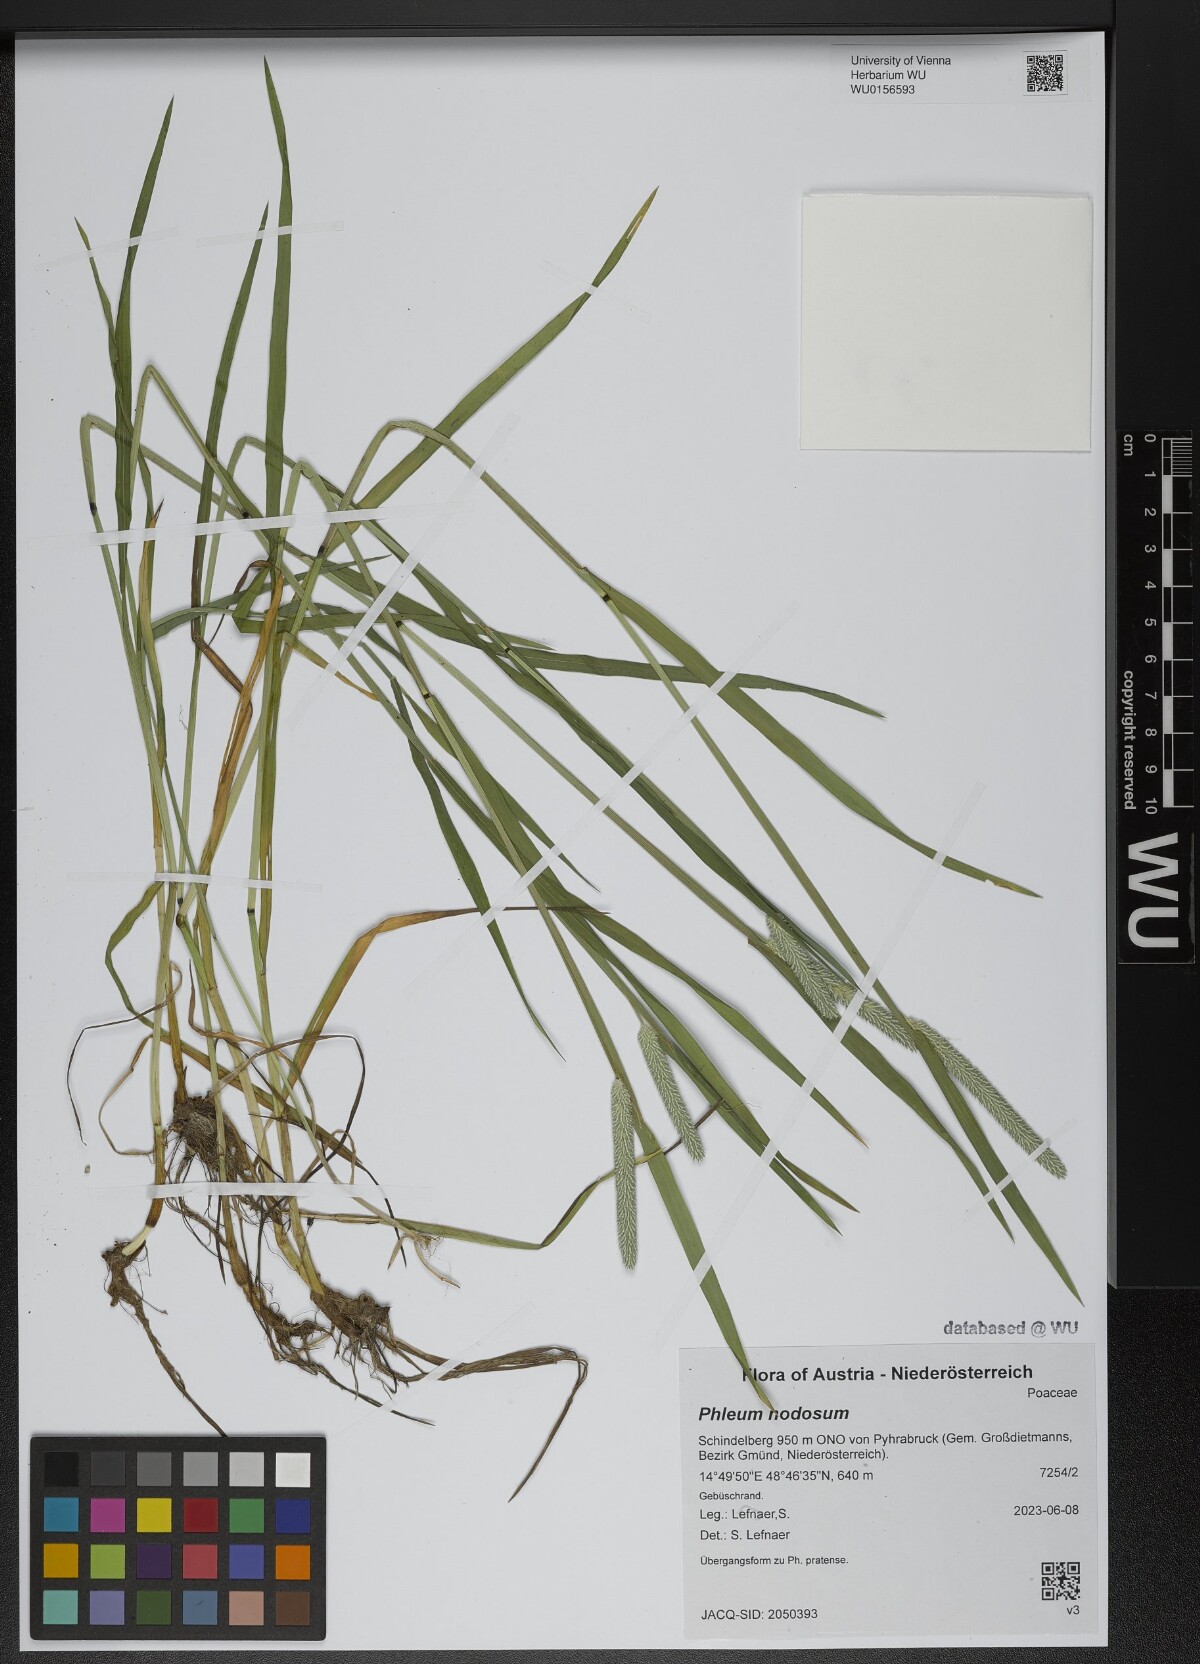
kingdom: Plantae
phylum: Tracheophyta
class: Liliopsida
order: Poales
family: Poaceae
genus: Phleum
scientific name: Phleum pratense
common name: Timothy grass
